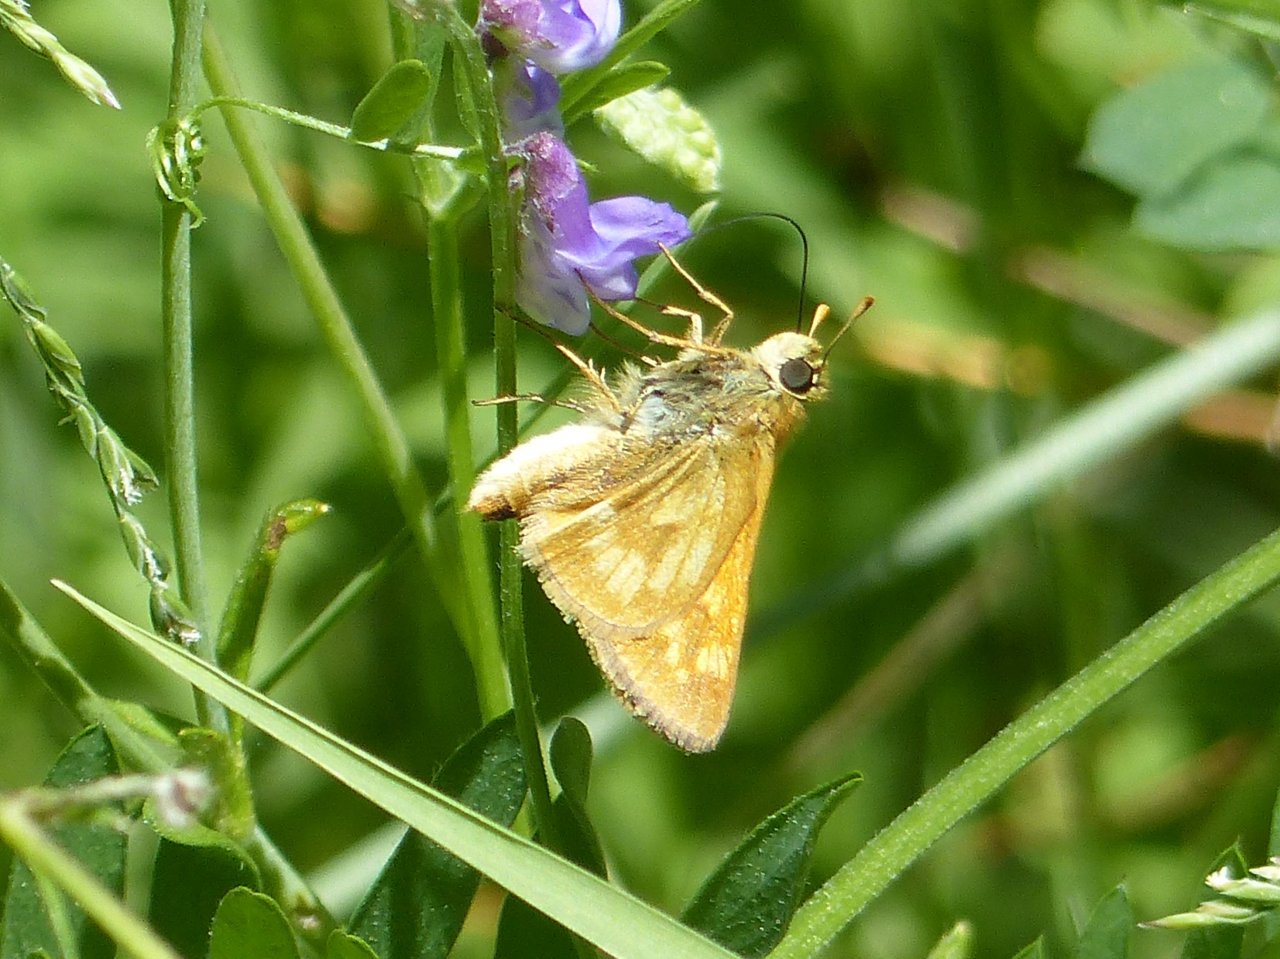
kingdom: Animalia
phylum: Arthropoda
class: Insecta
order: Lepidoptera
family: Hesperiidae
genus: Polites
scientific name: Polites
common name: Long Dash Skipper
